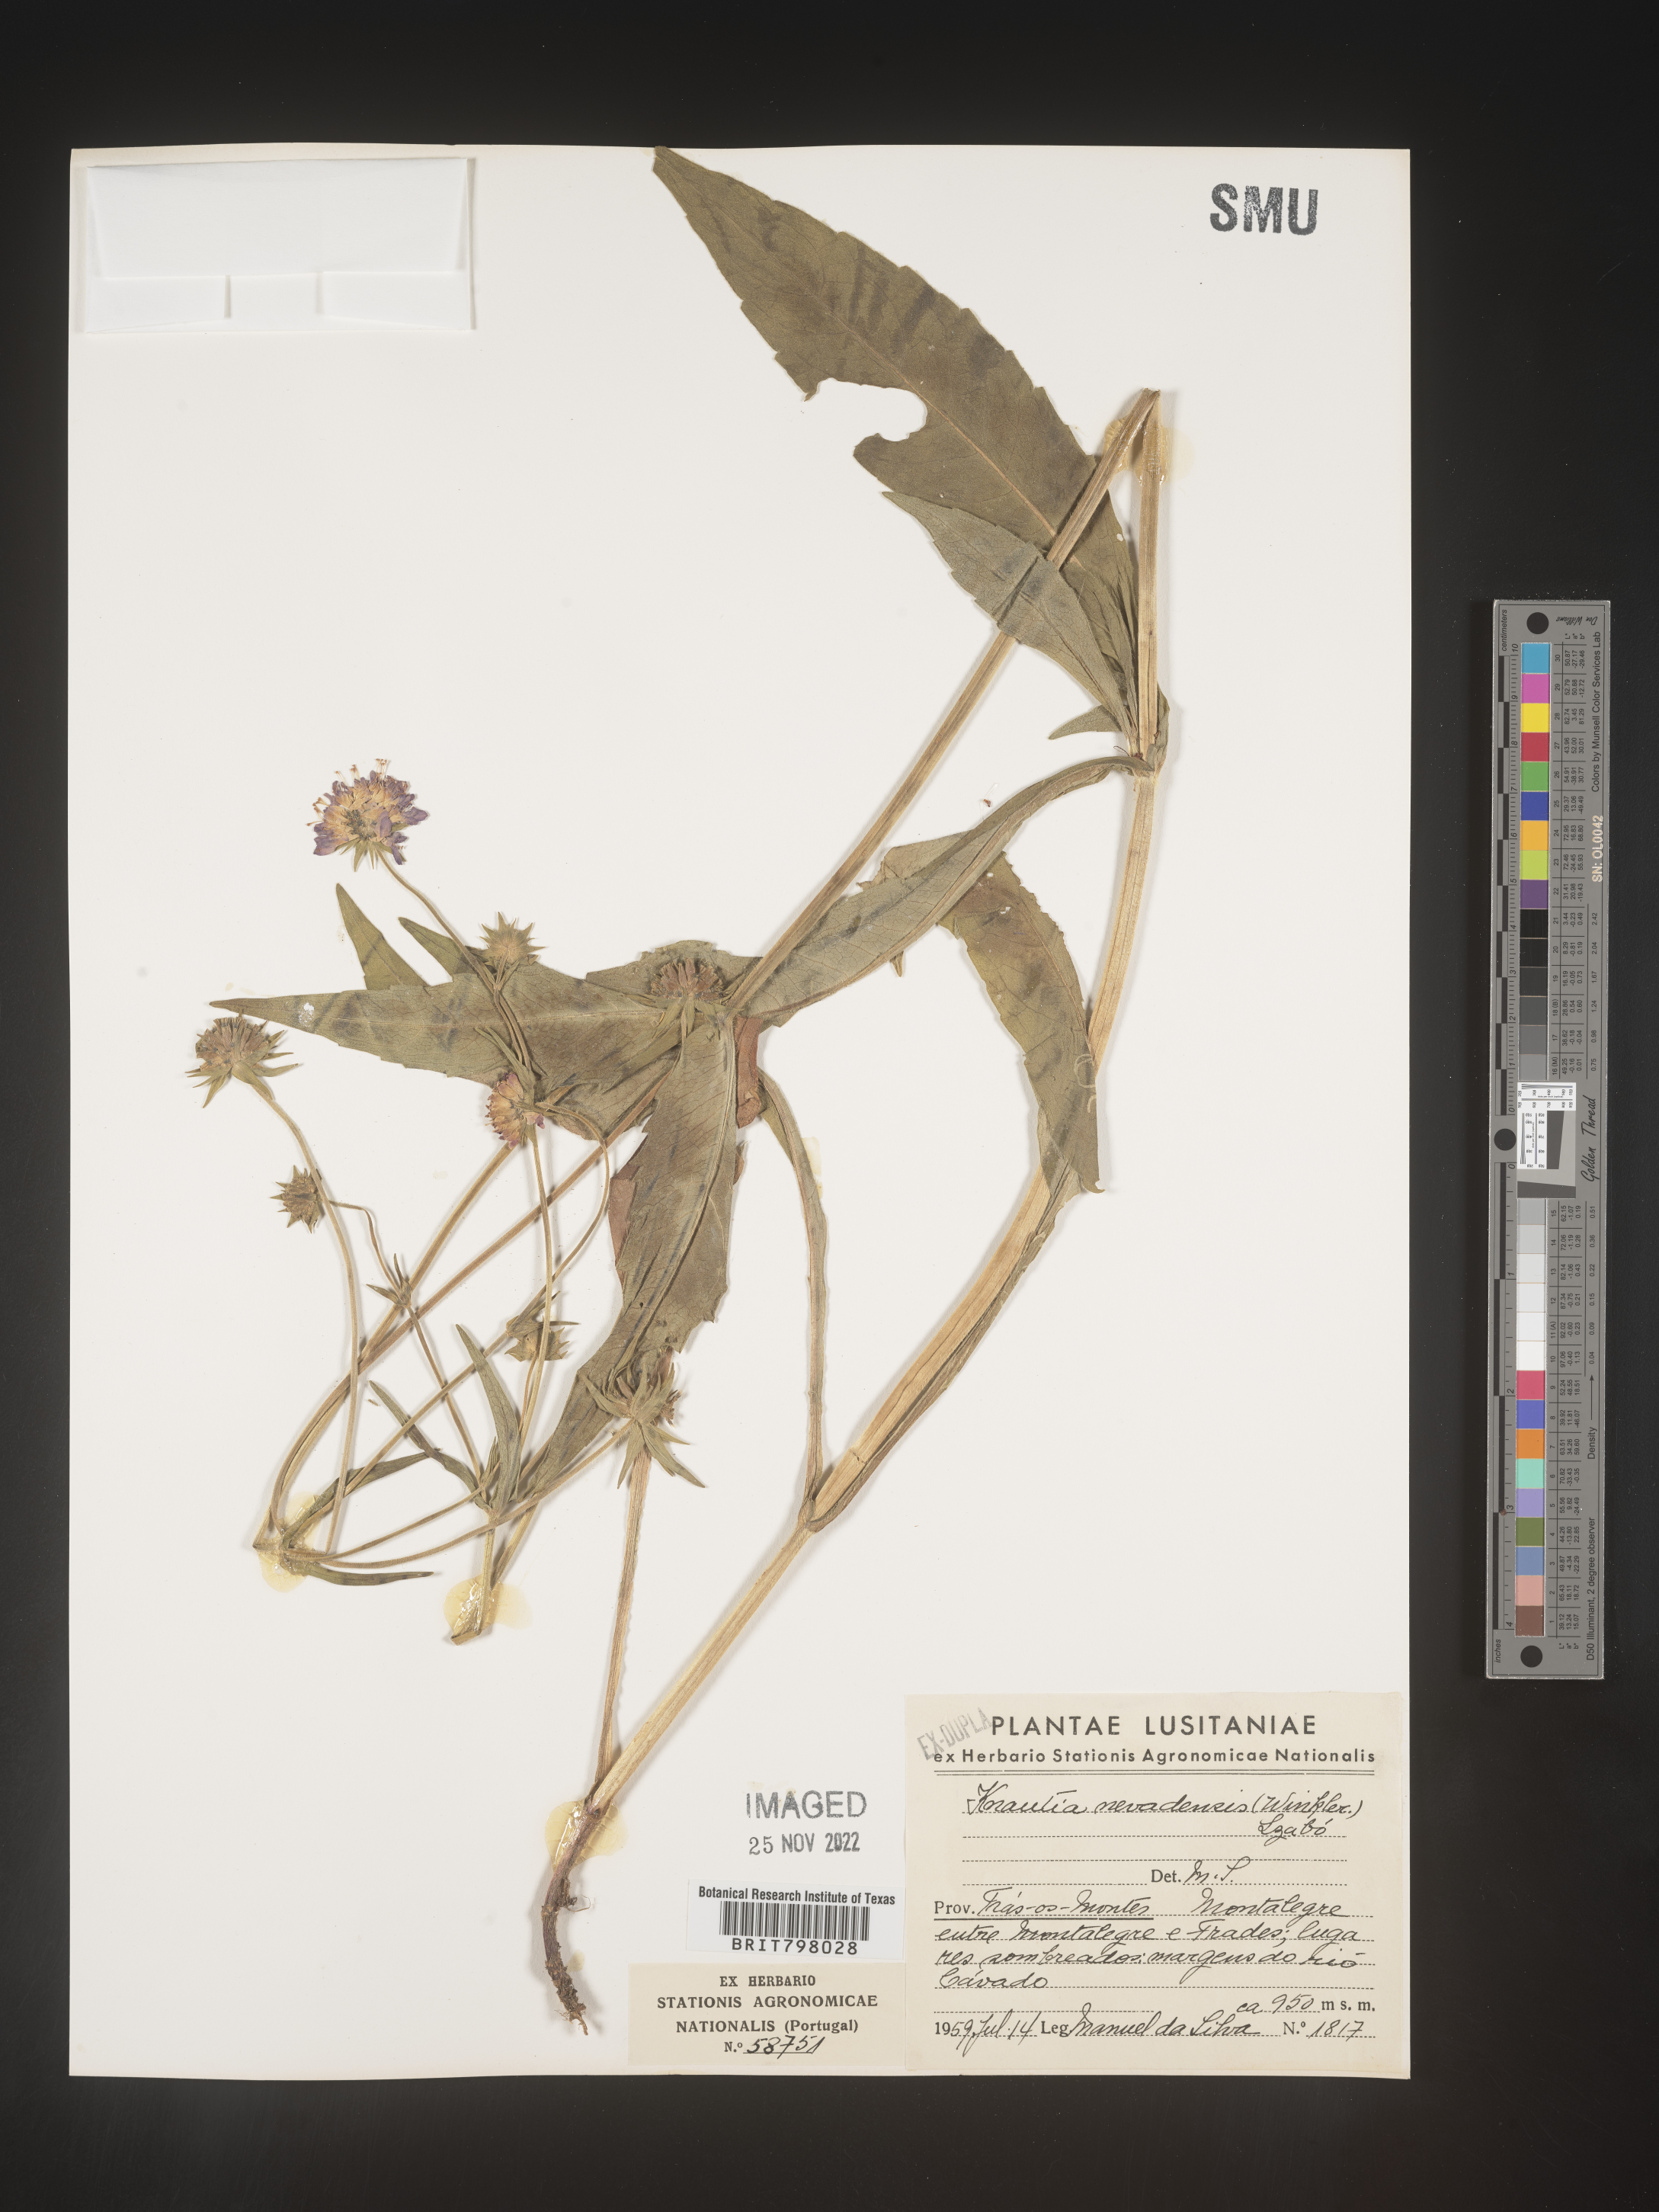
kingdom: Plantae
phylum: Tracheophyta
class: Magnoliopsida
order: Dipsacales
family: Caprifoliaceae
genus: Knautia
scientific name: Knautia
